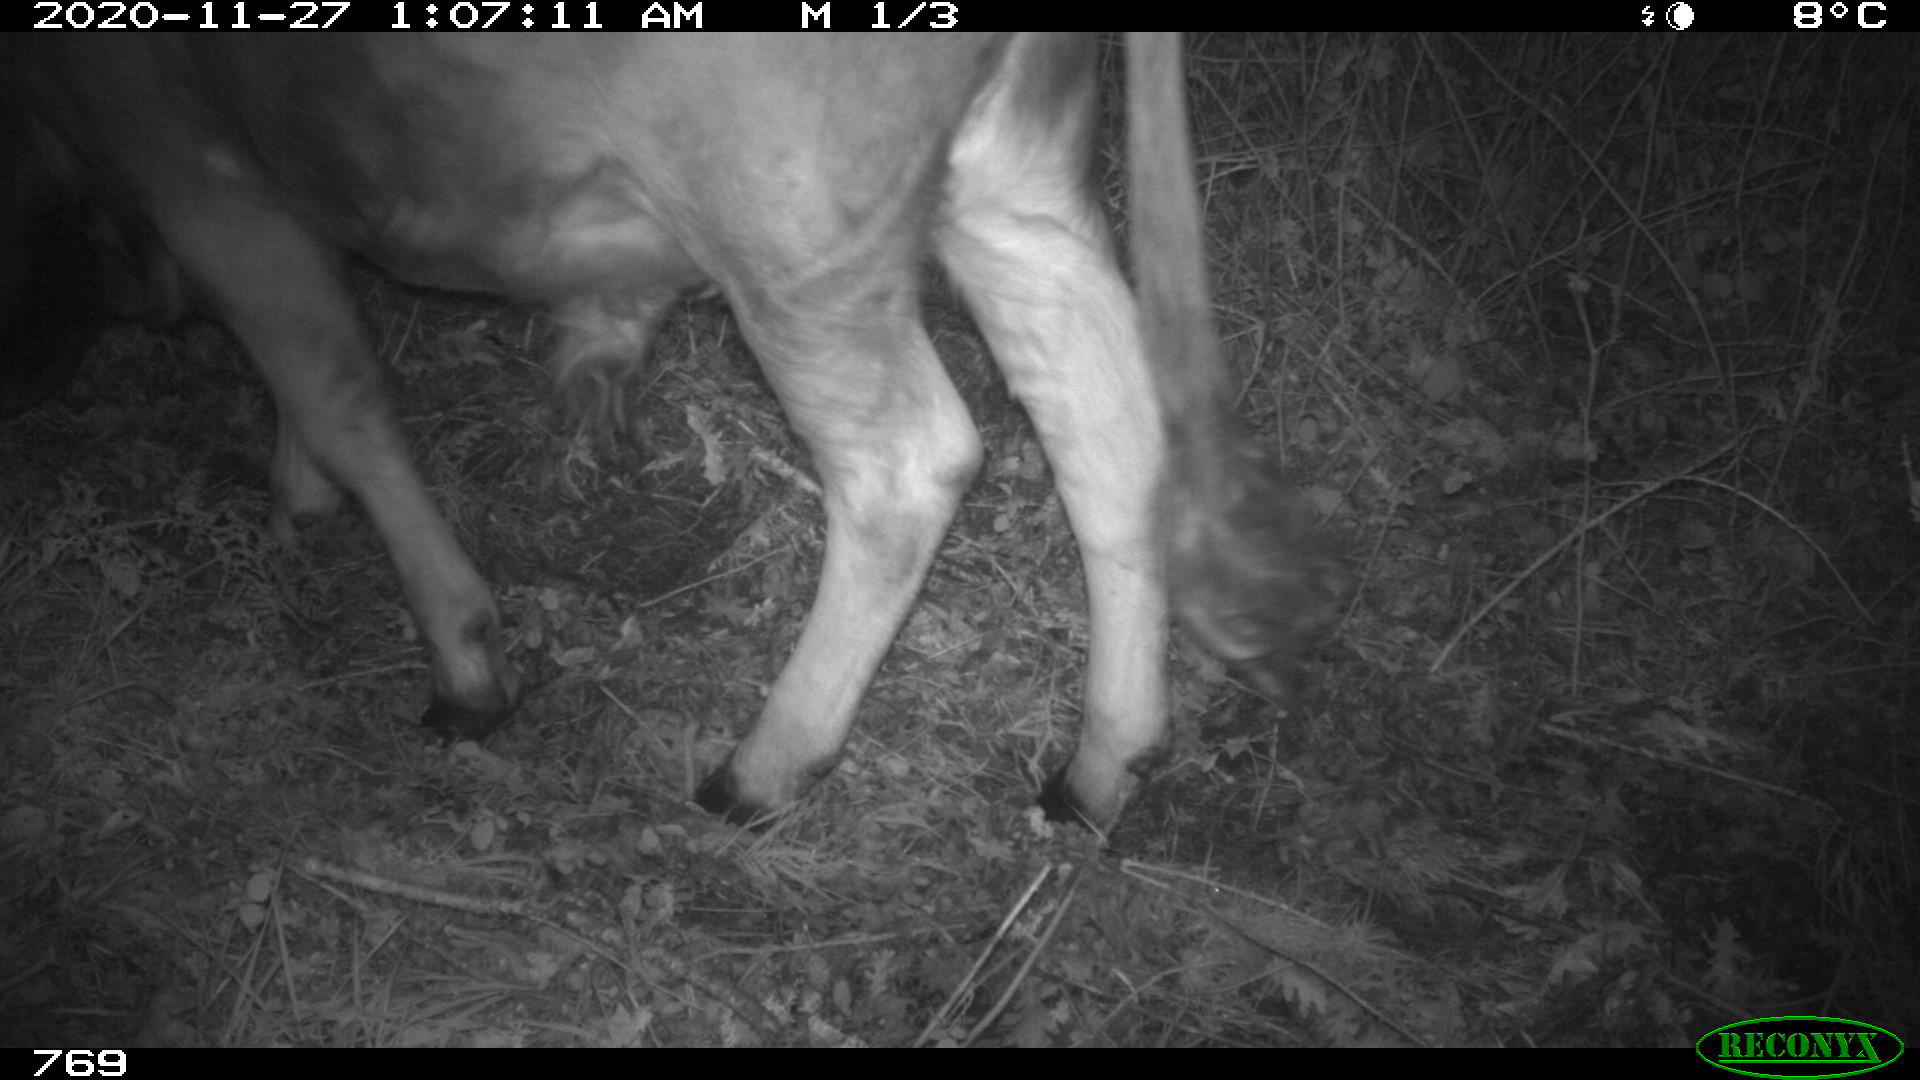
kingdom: Animalia
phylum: Chordata
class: Mammalia
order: Artiodactyla
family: Bovidae
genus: Bos
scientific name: Bos taurus
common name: Domesticated cattle
